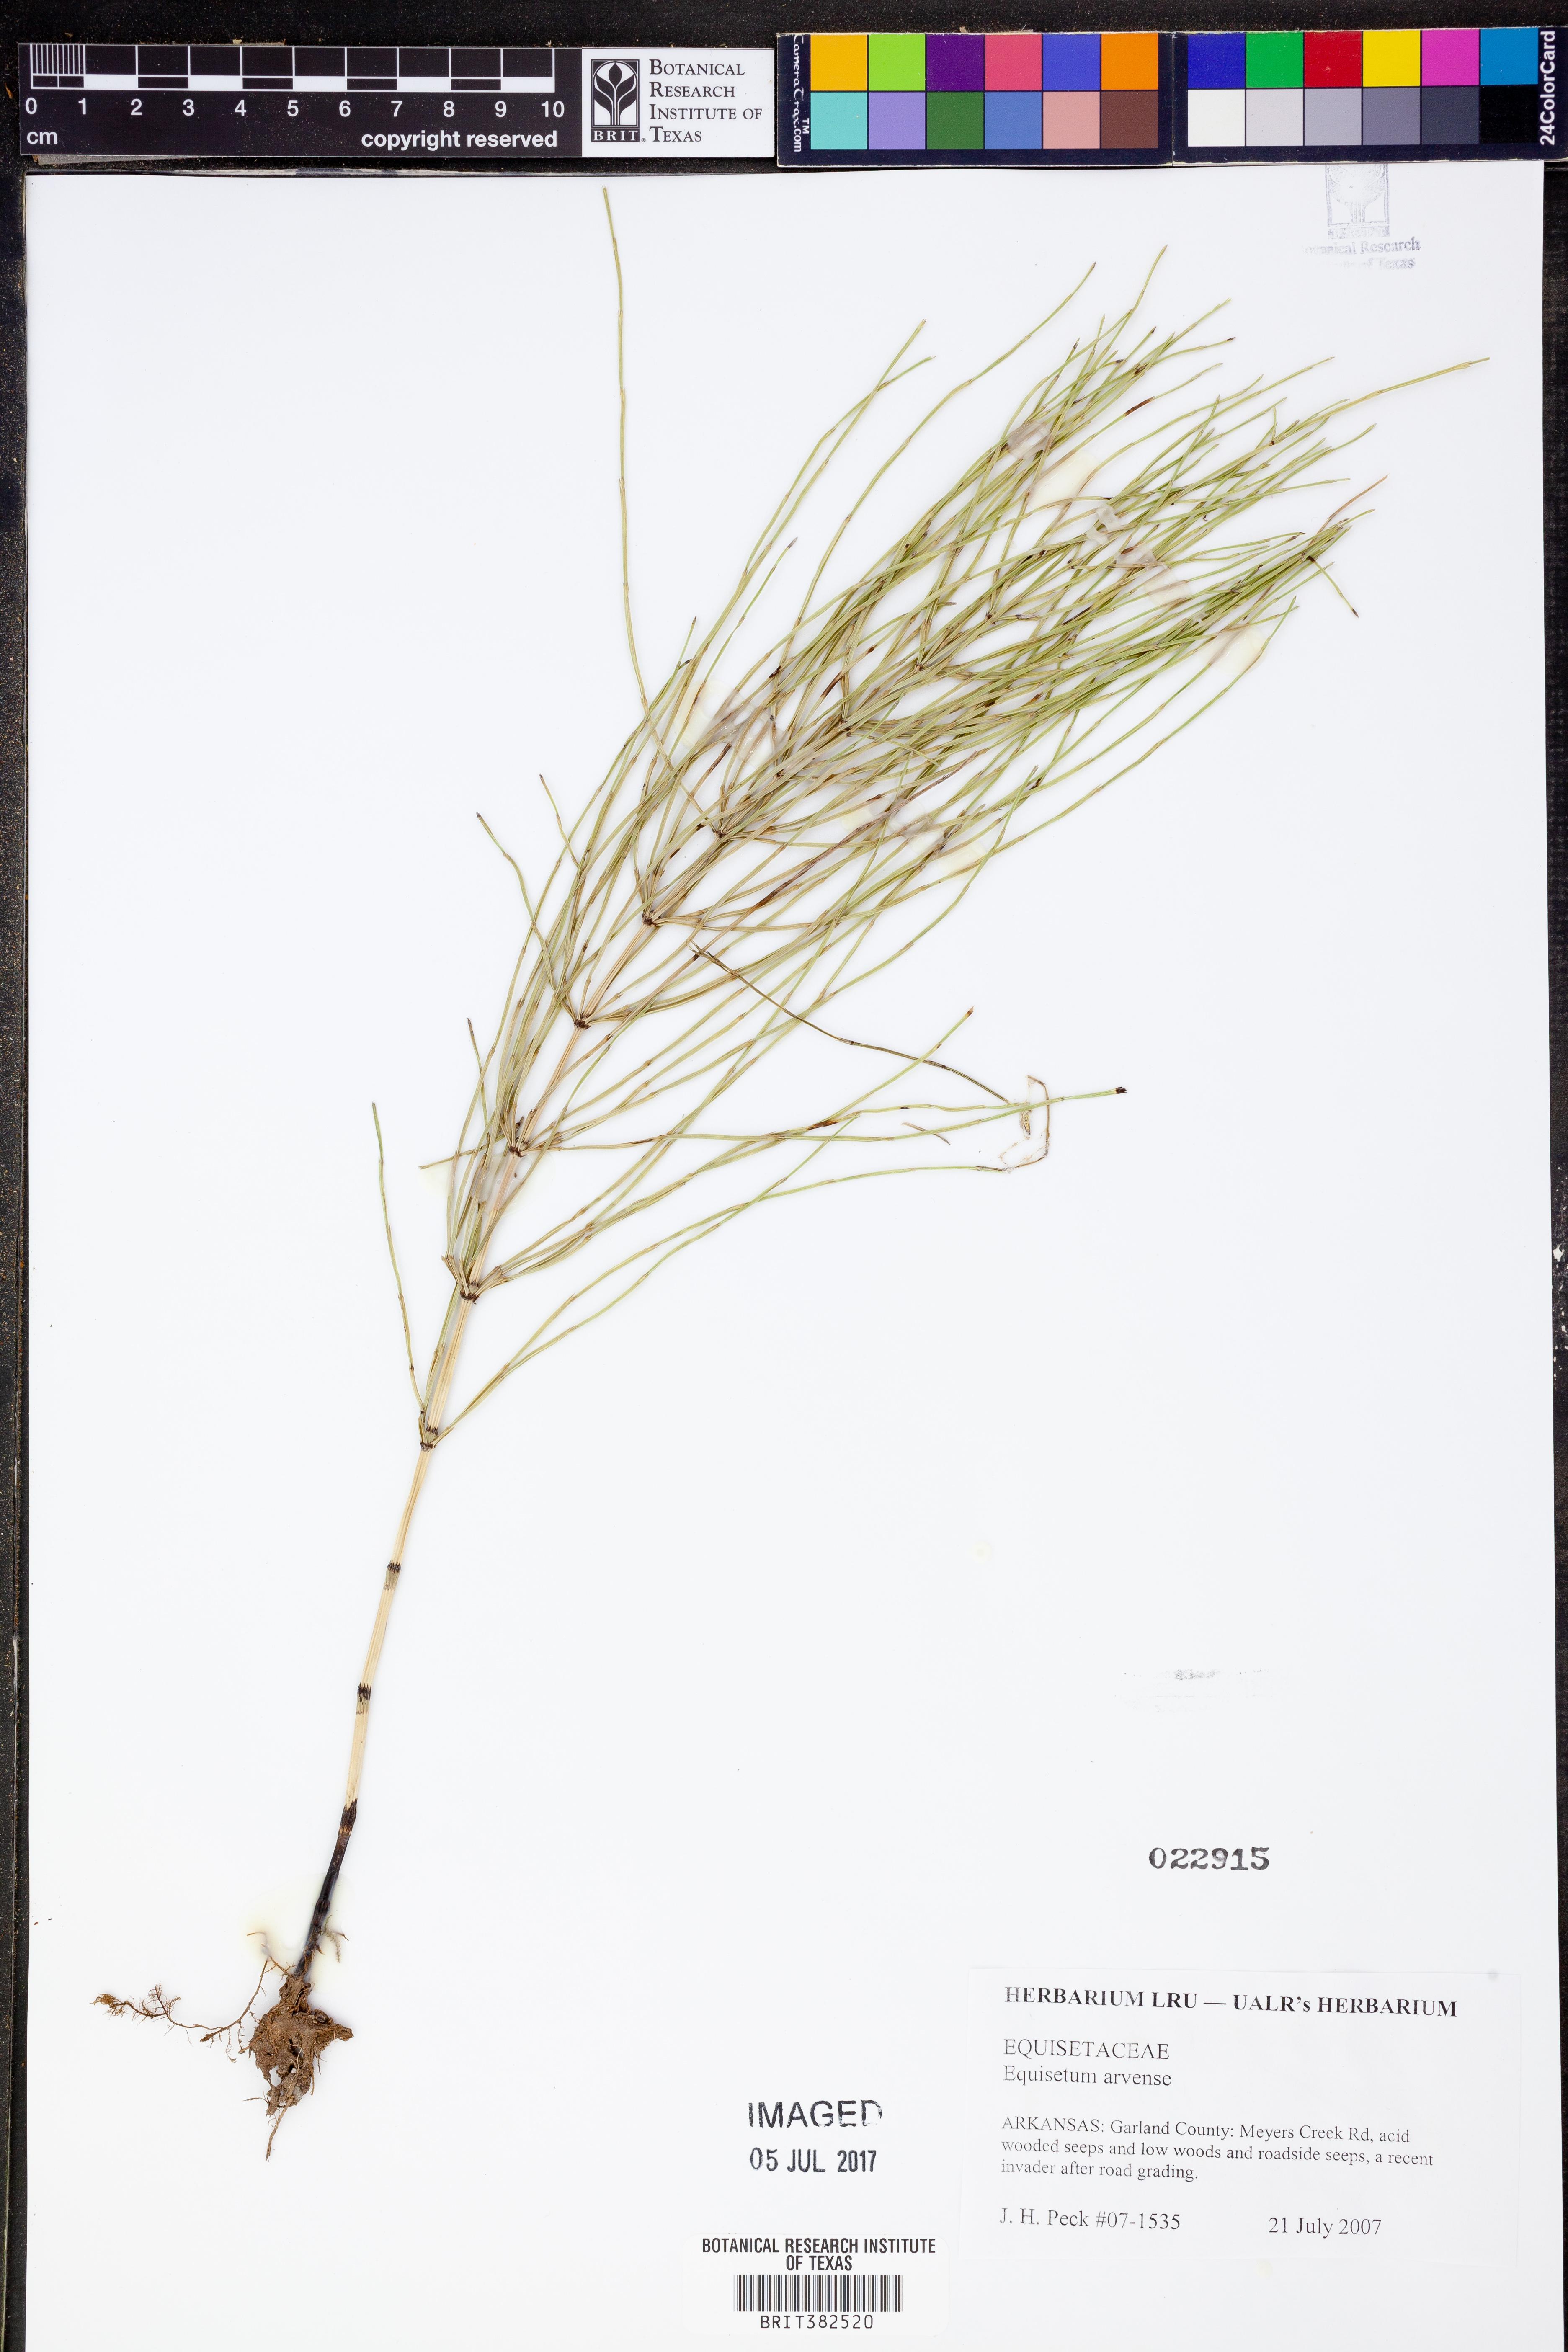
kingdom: Plantae
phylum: Tracheophyta
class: Polypodiopsida
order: Equisetales
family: Equisetaceae
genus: Equisetum
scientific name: Equisetum arvense
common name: Field horsetail
